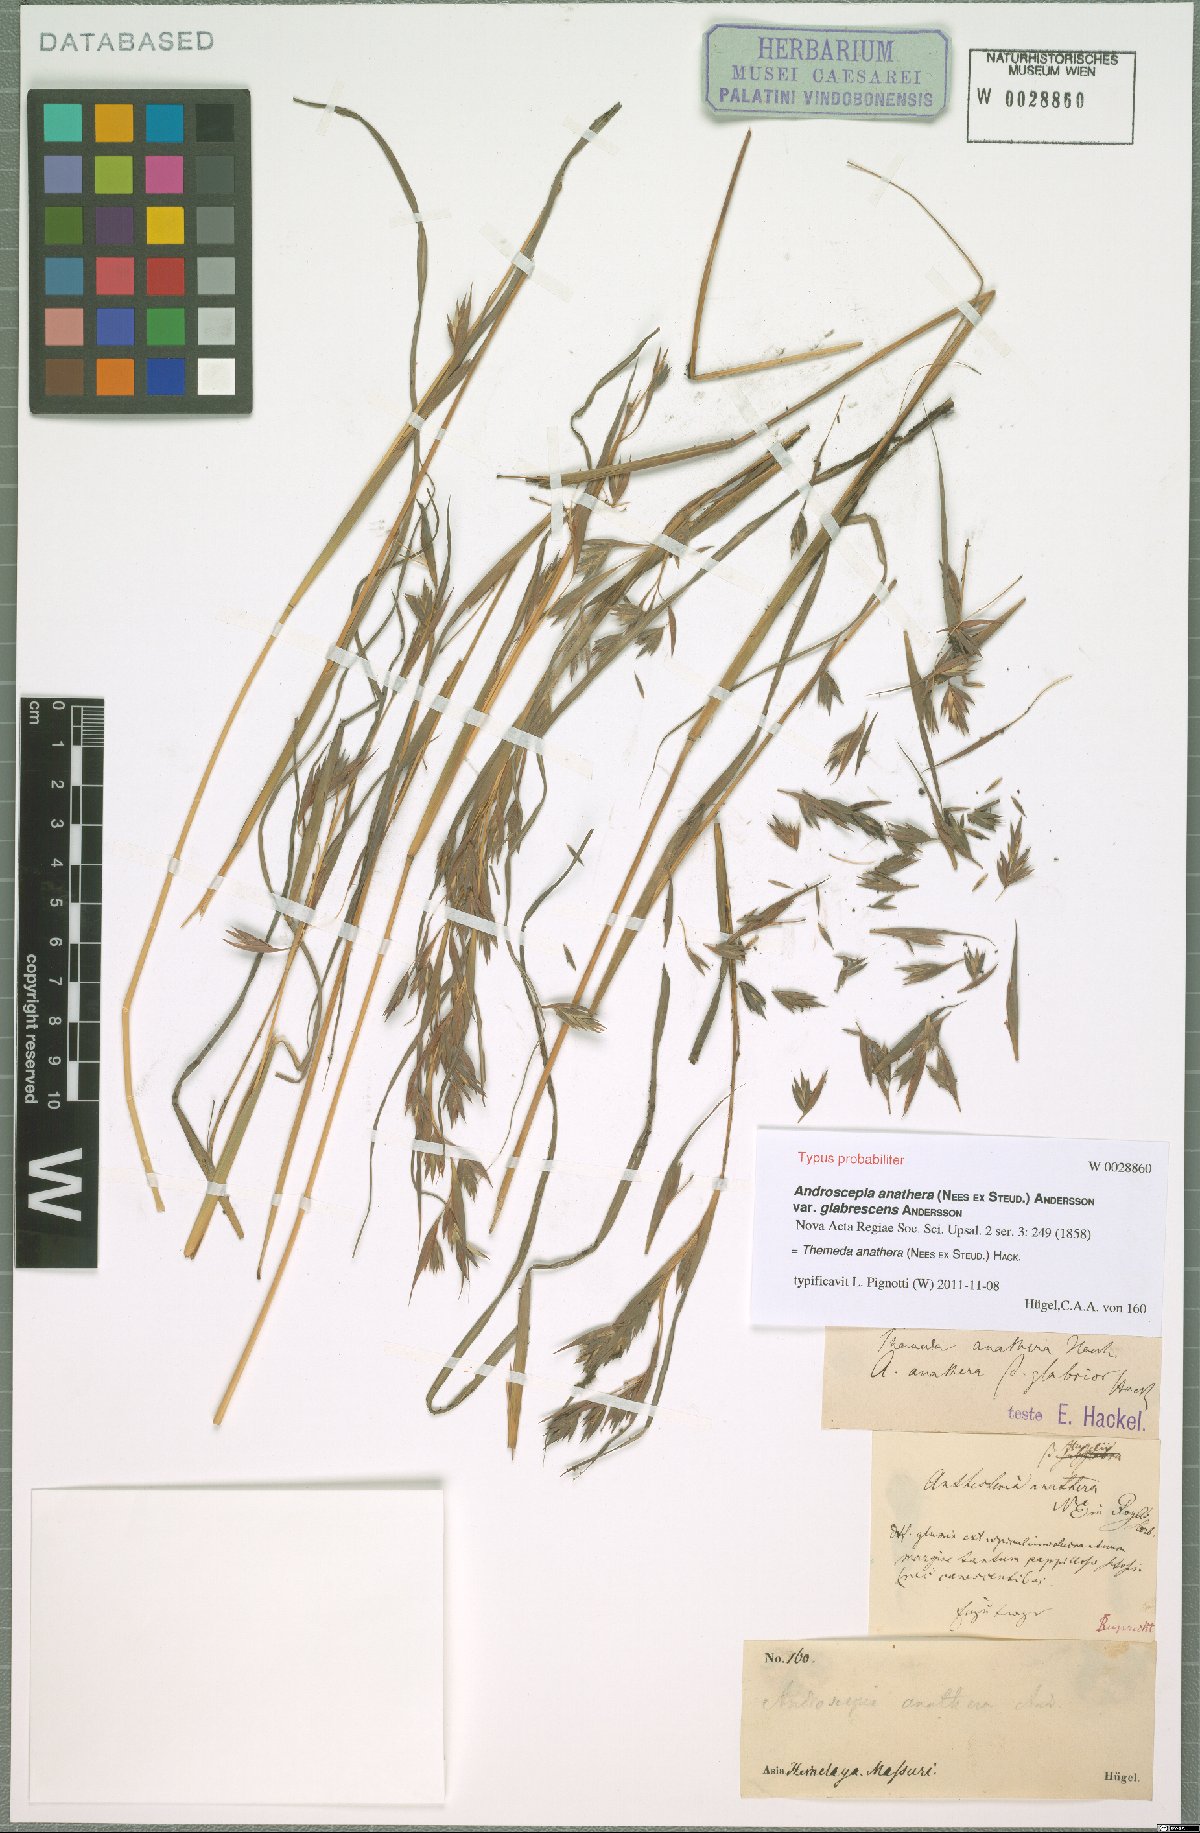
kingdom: Plantae
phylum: Tracheophyta
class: Liliopsida
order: Poales
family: Poaceae
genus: Themeda
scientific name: Themeda anathera
